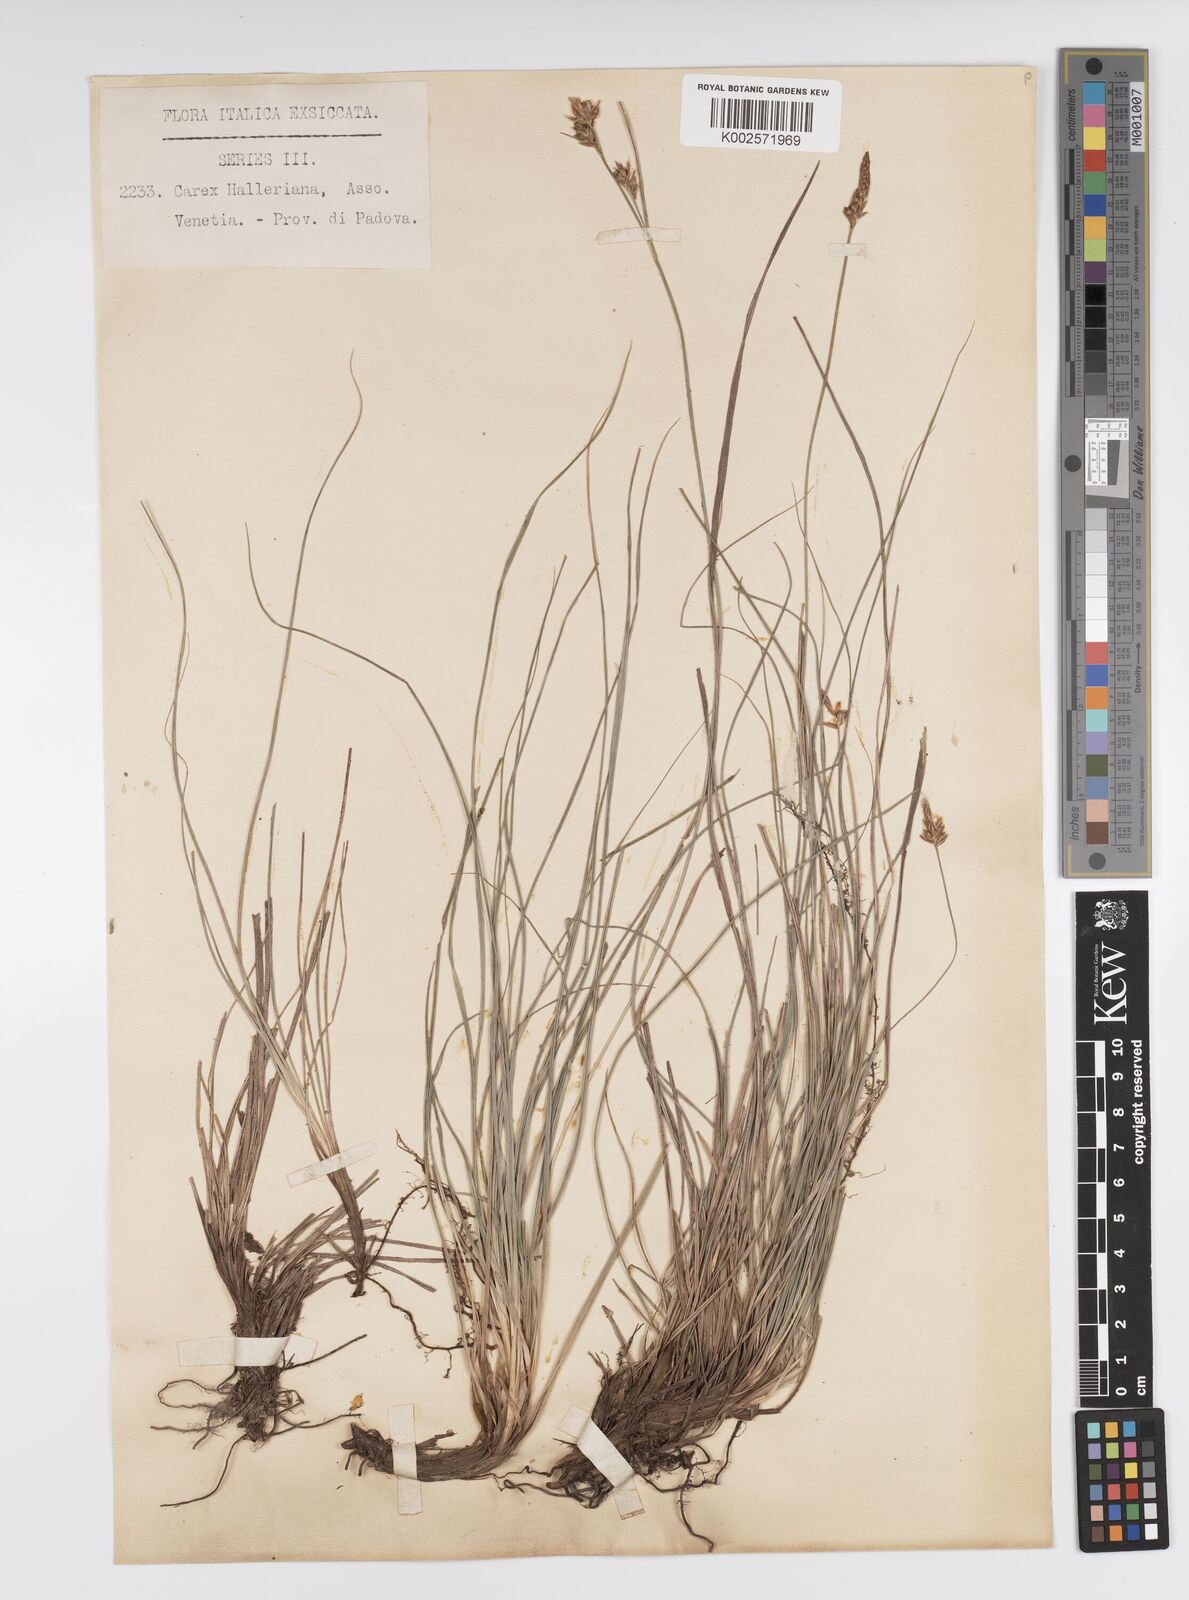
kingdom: Plantae
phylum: Tracheophyta
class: Liliopsida
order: Poales
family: Cyperaceae
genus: Carex
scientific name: Carex halleriana
